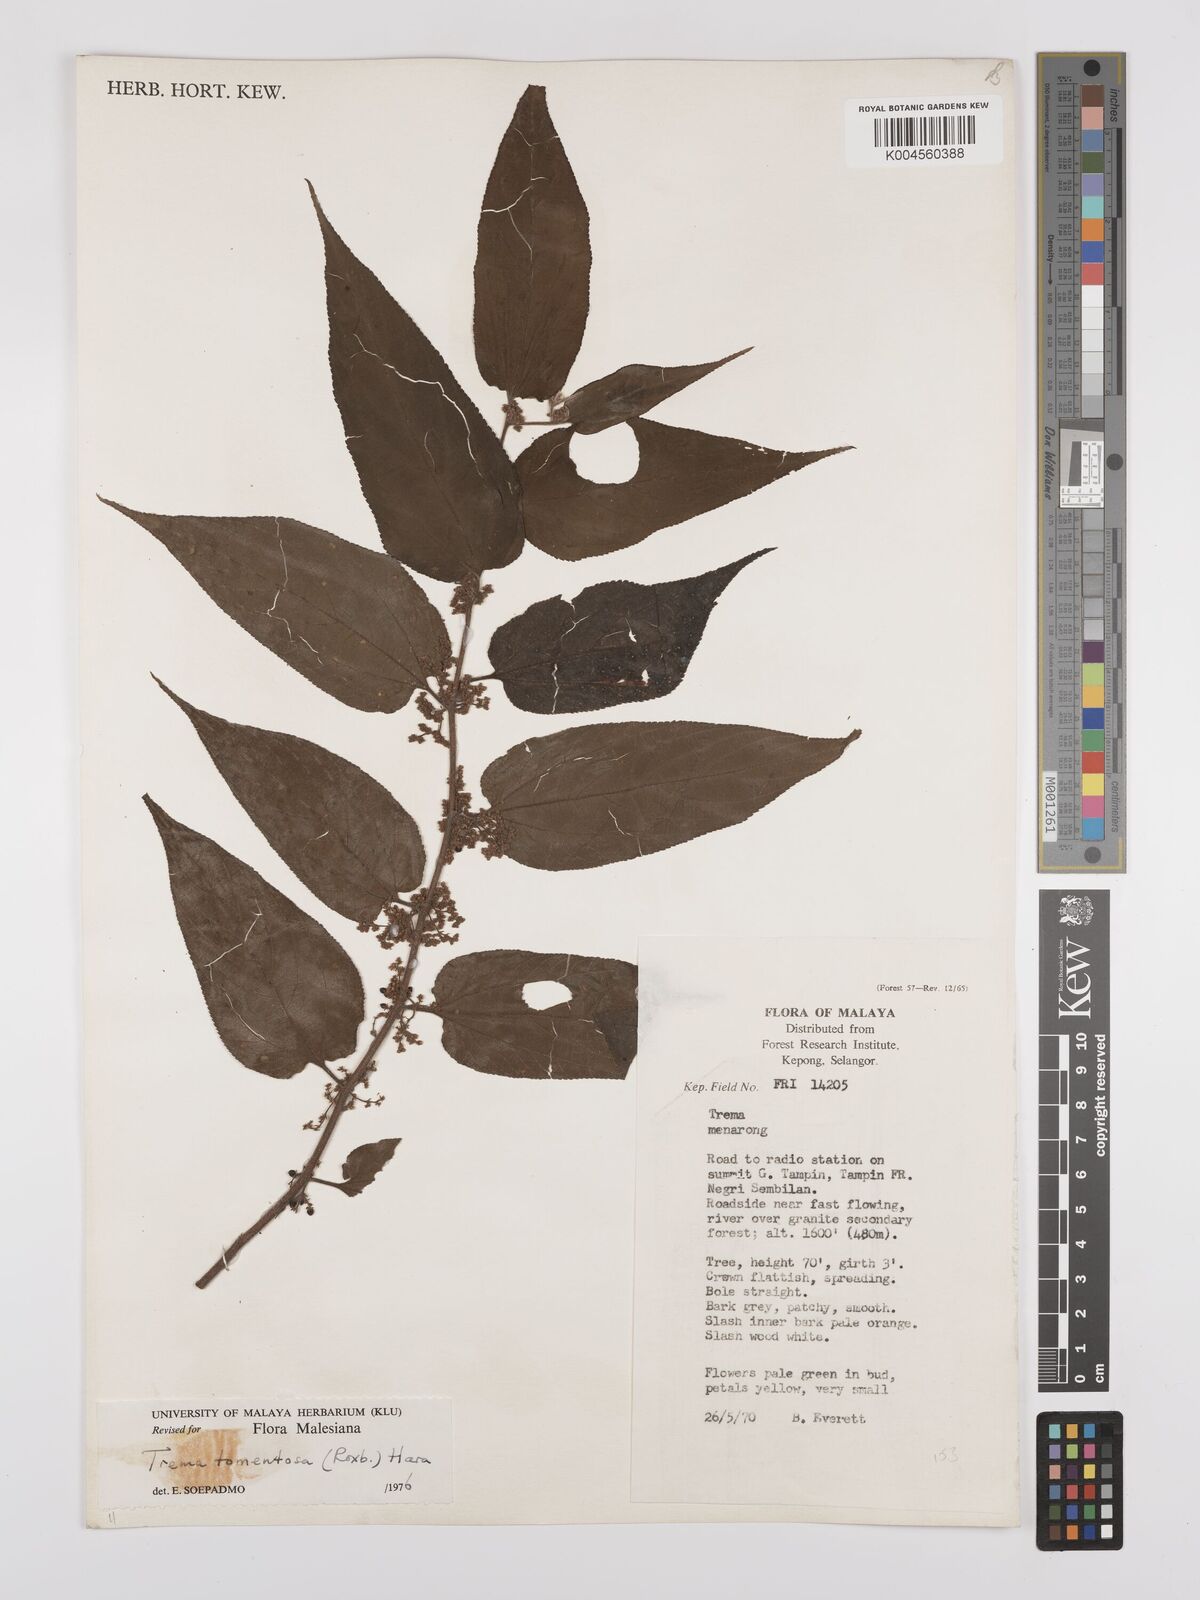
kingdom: Plantae
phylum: Tracheophyta
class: Magnoliopsida
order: Rosales
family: Cannabaceae
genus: Trema
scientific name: Trema tomentosum
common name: Peach-leaf-poisonbush
